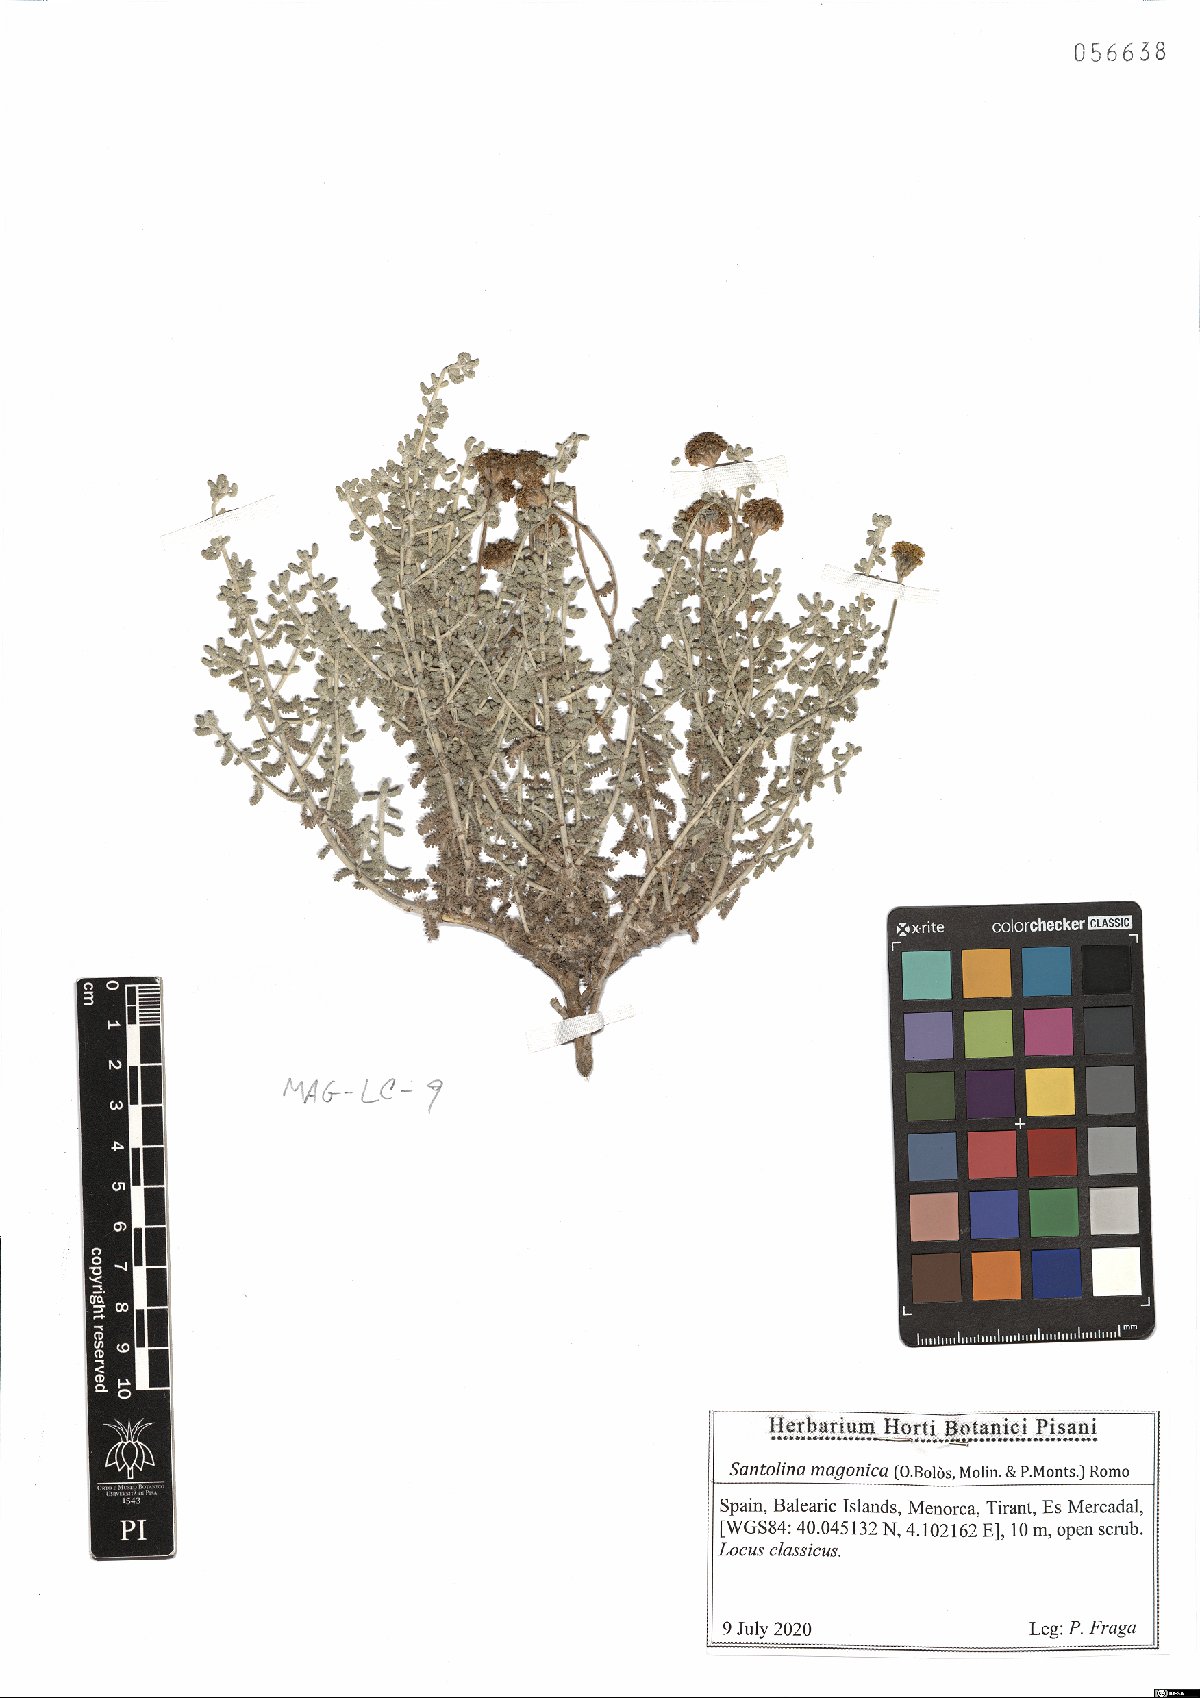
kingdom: Plantae
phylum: Tracheophyta
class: Magnoliopsida
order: Asterales
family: Asteraceae
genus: Santolina
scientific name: Santolina magonica
